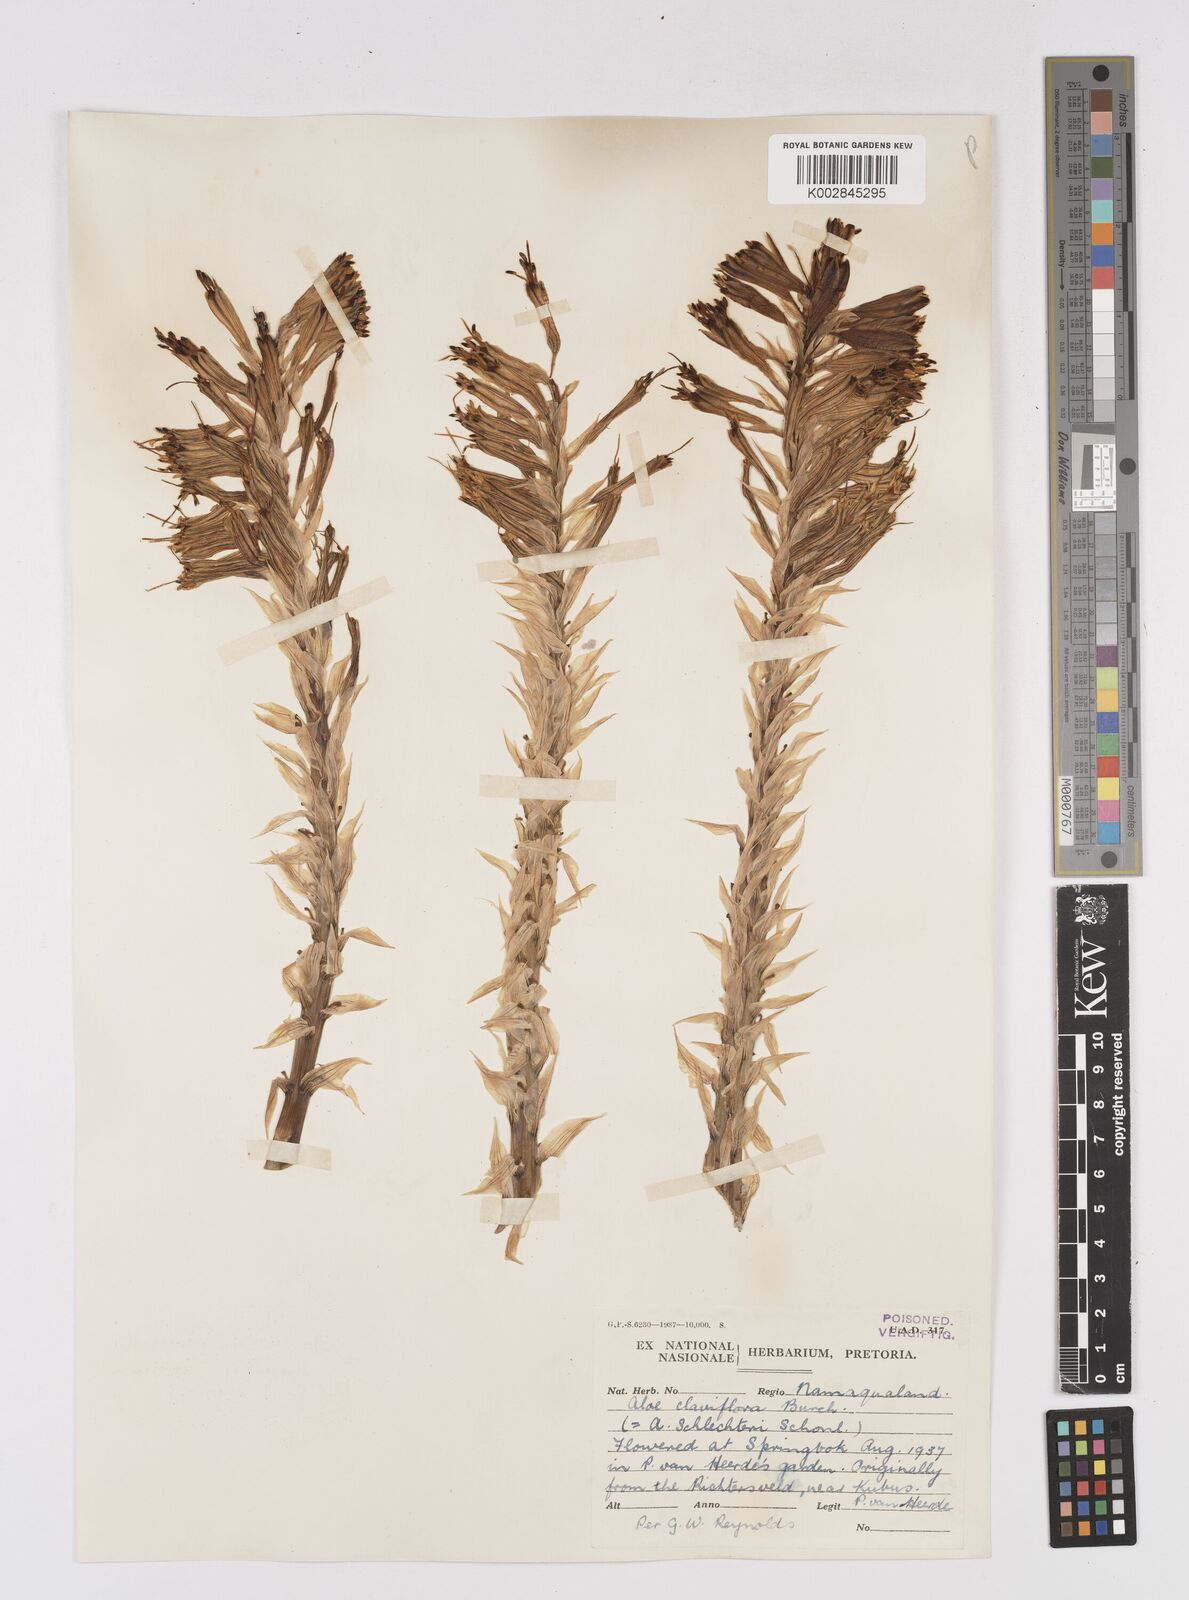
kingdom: Plantae
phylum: Tracheophyta
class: Liliopsida
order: Asparagales
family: Asphodelaceae
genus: Aloe
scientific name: Aloe claviflora
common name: Cannon aloe
